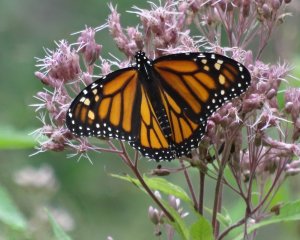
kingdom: Animalia
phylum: Arthropoda
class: Insecta
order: Lepidoptera
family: Nymphalidae
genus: Danaus
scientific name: Danaus plexippus
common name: Monarch
